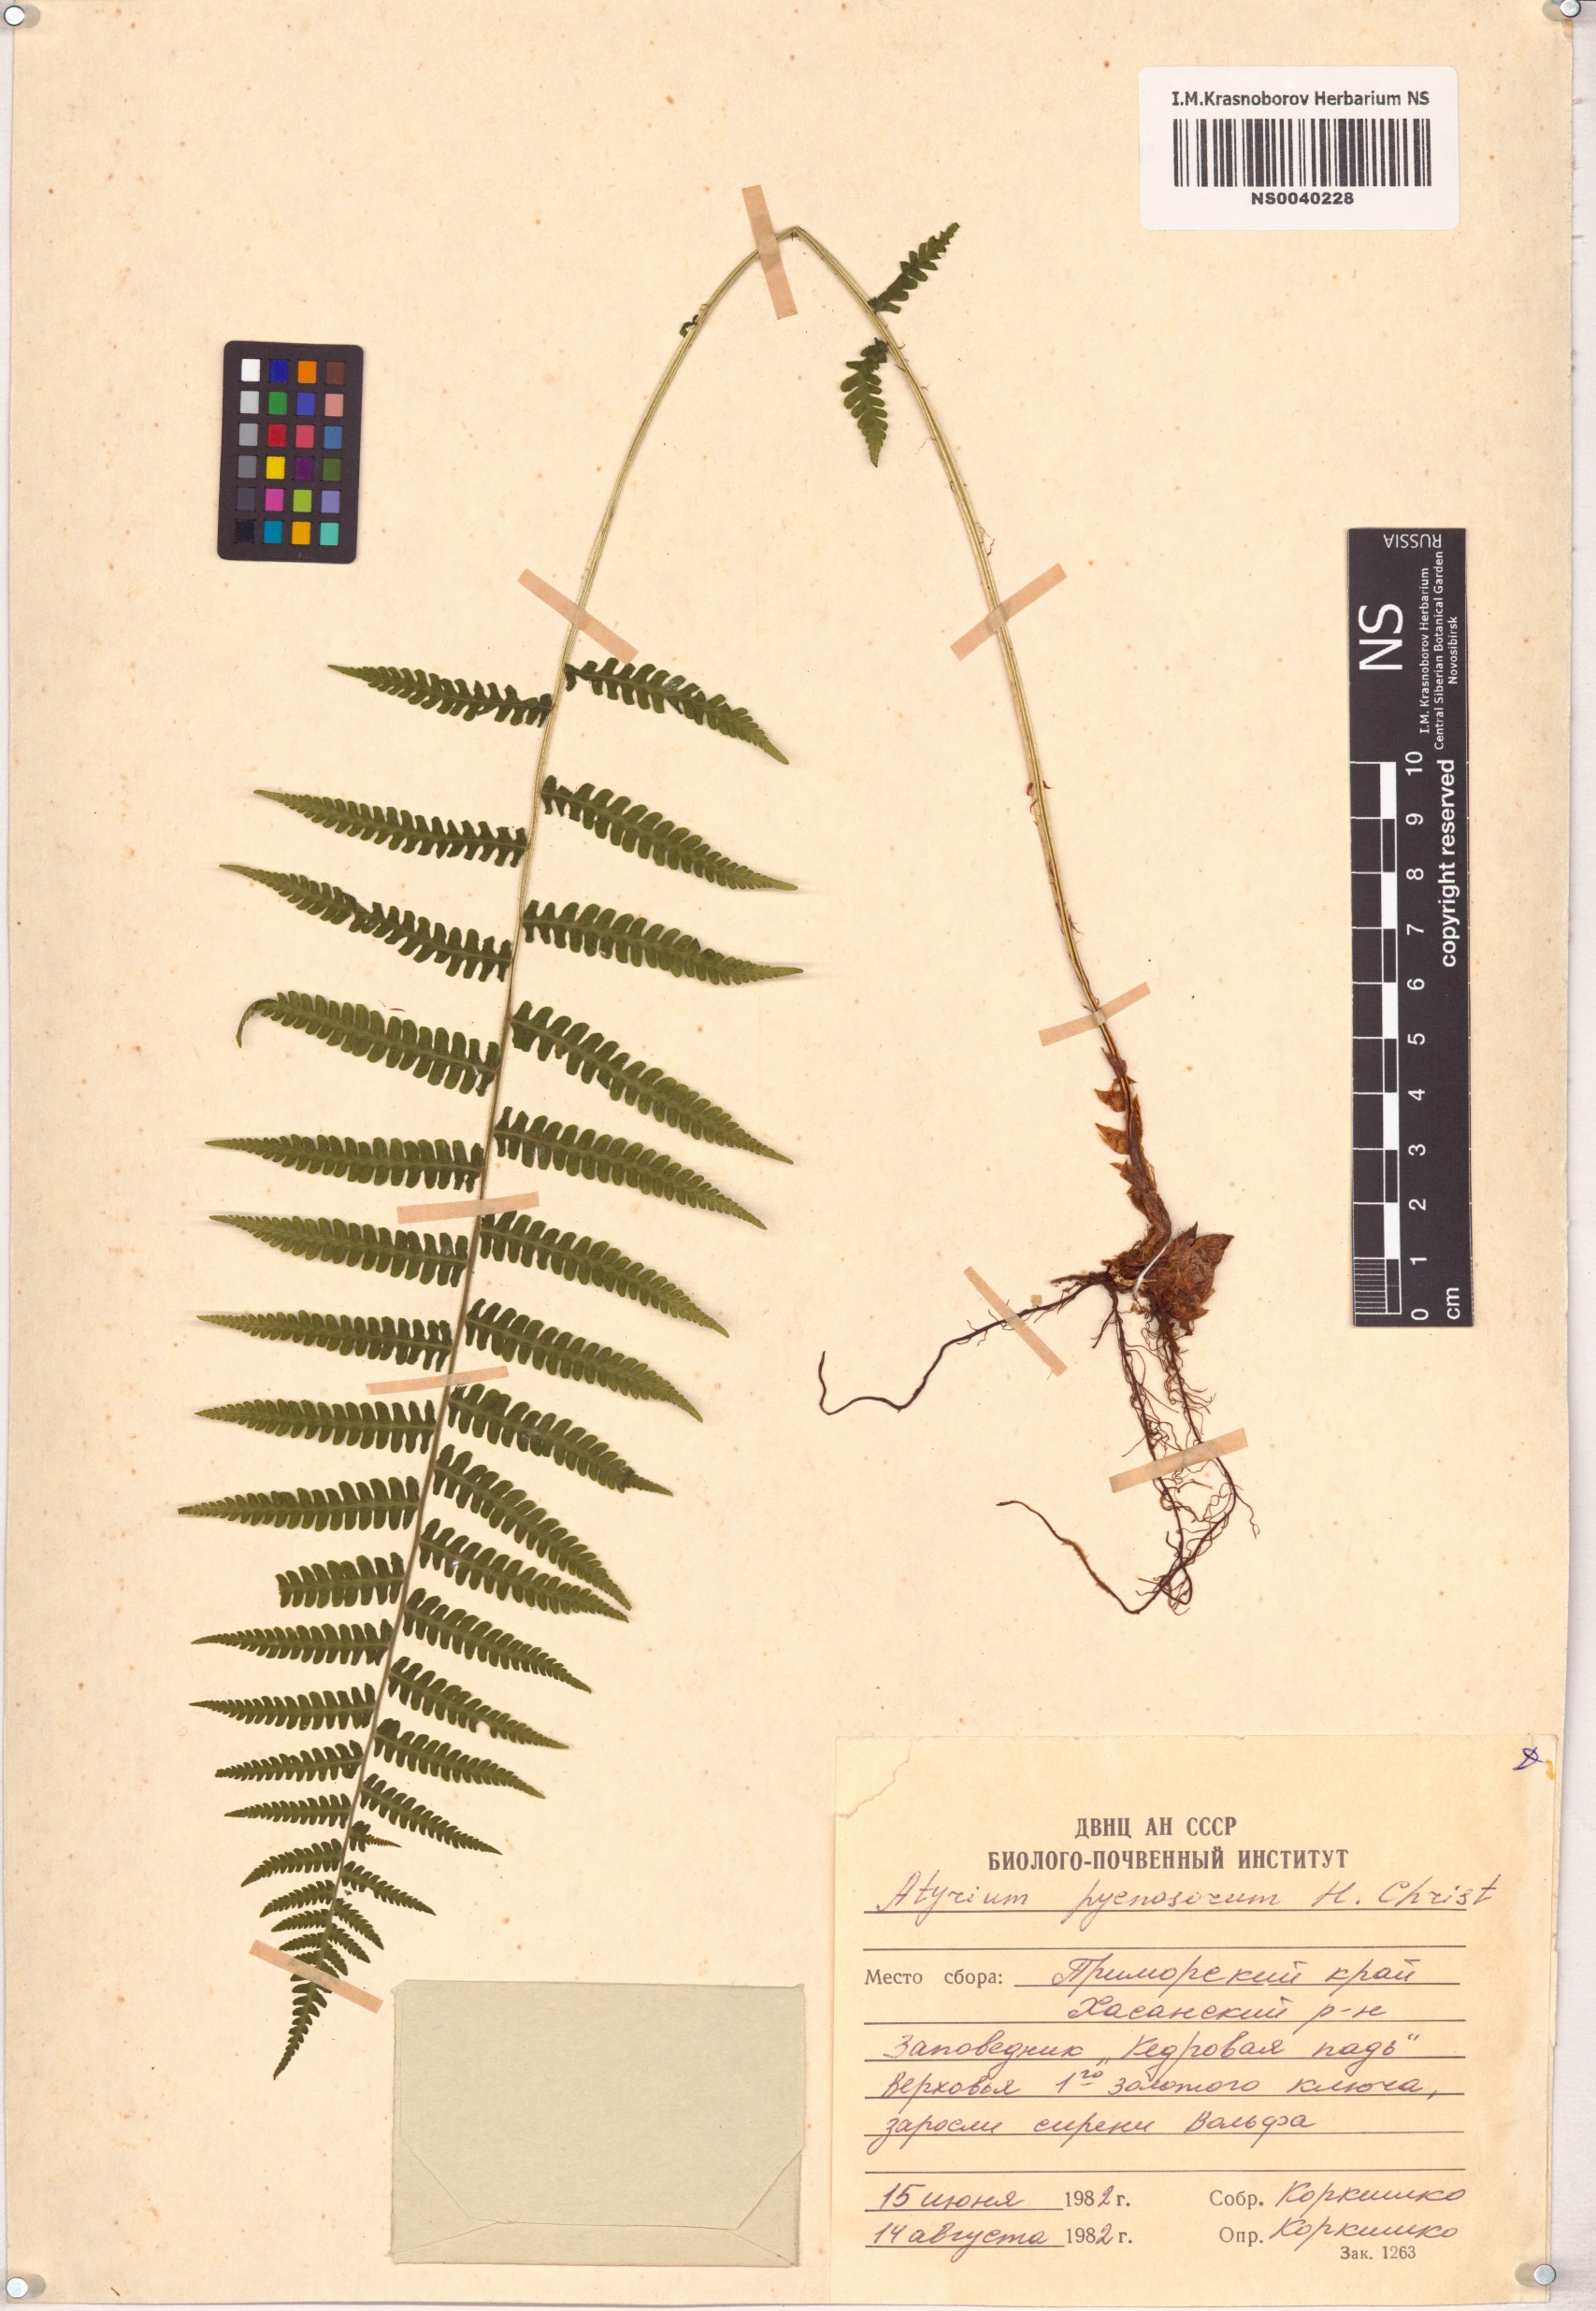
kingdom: Plantae
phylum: Tracheophyta
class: Polypodiopsida
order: Polypodiales
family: Athyriaceae
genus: Deparia
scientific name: Deparia pycnosora
